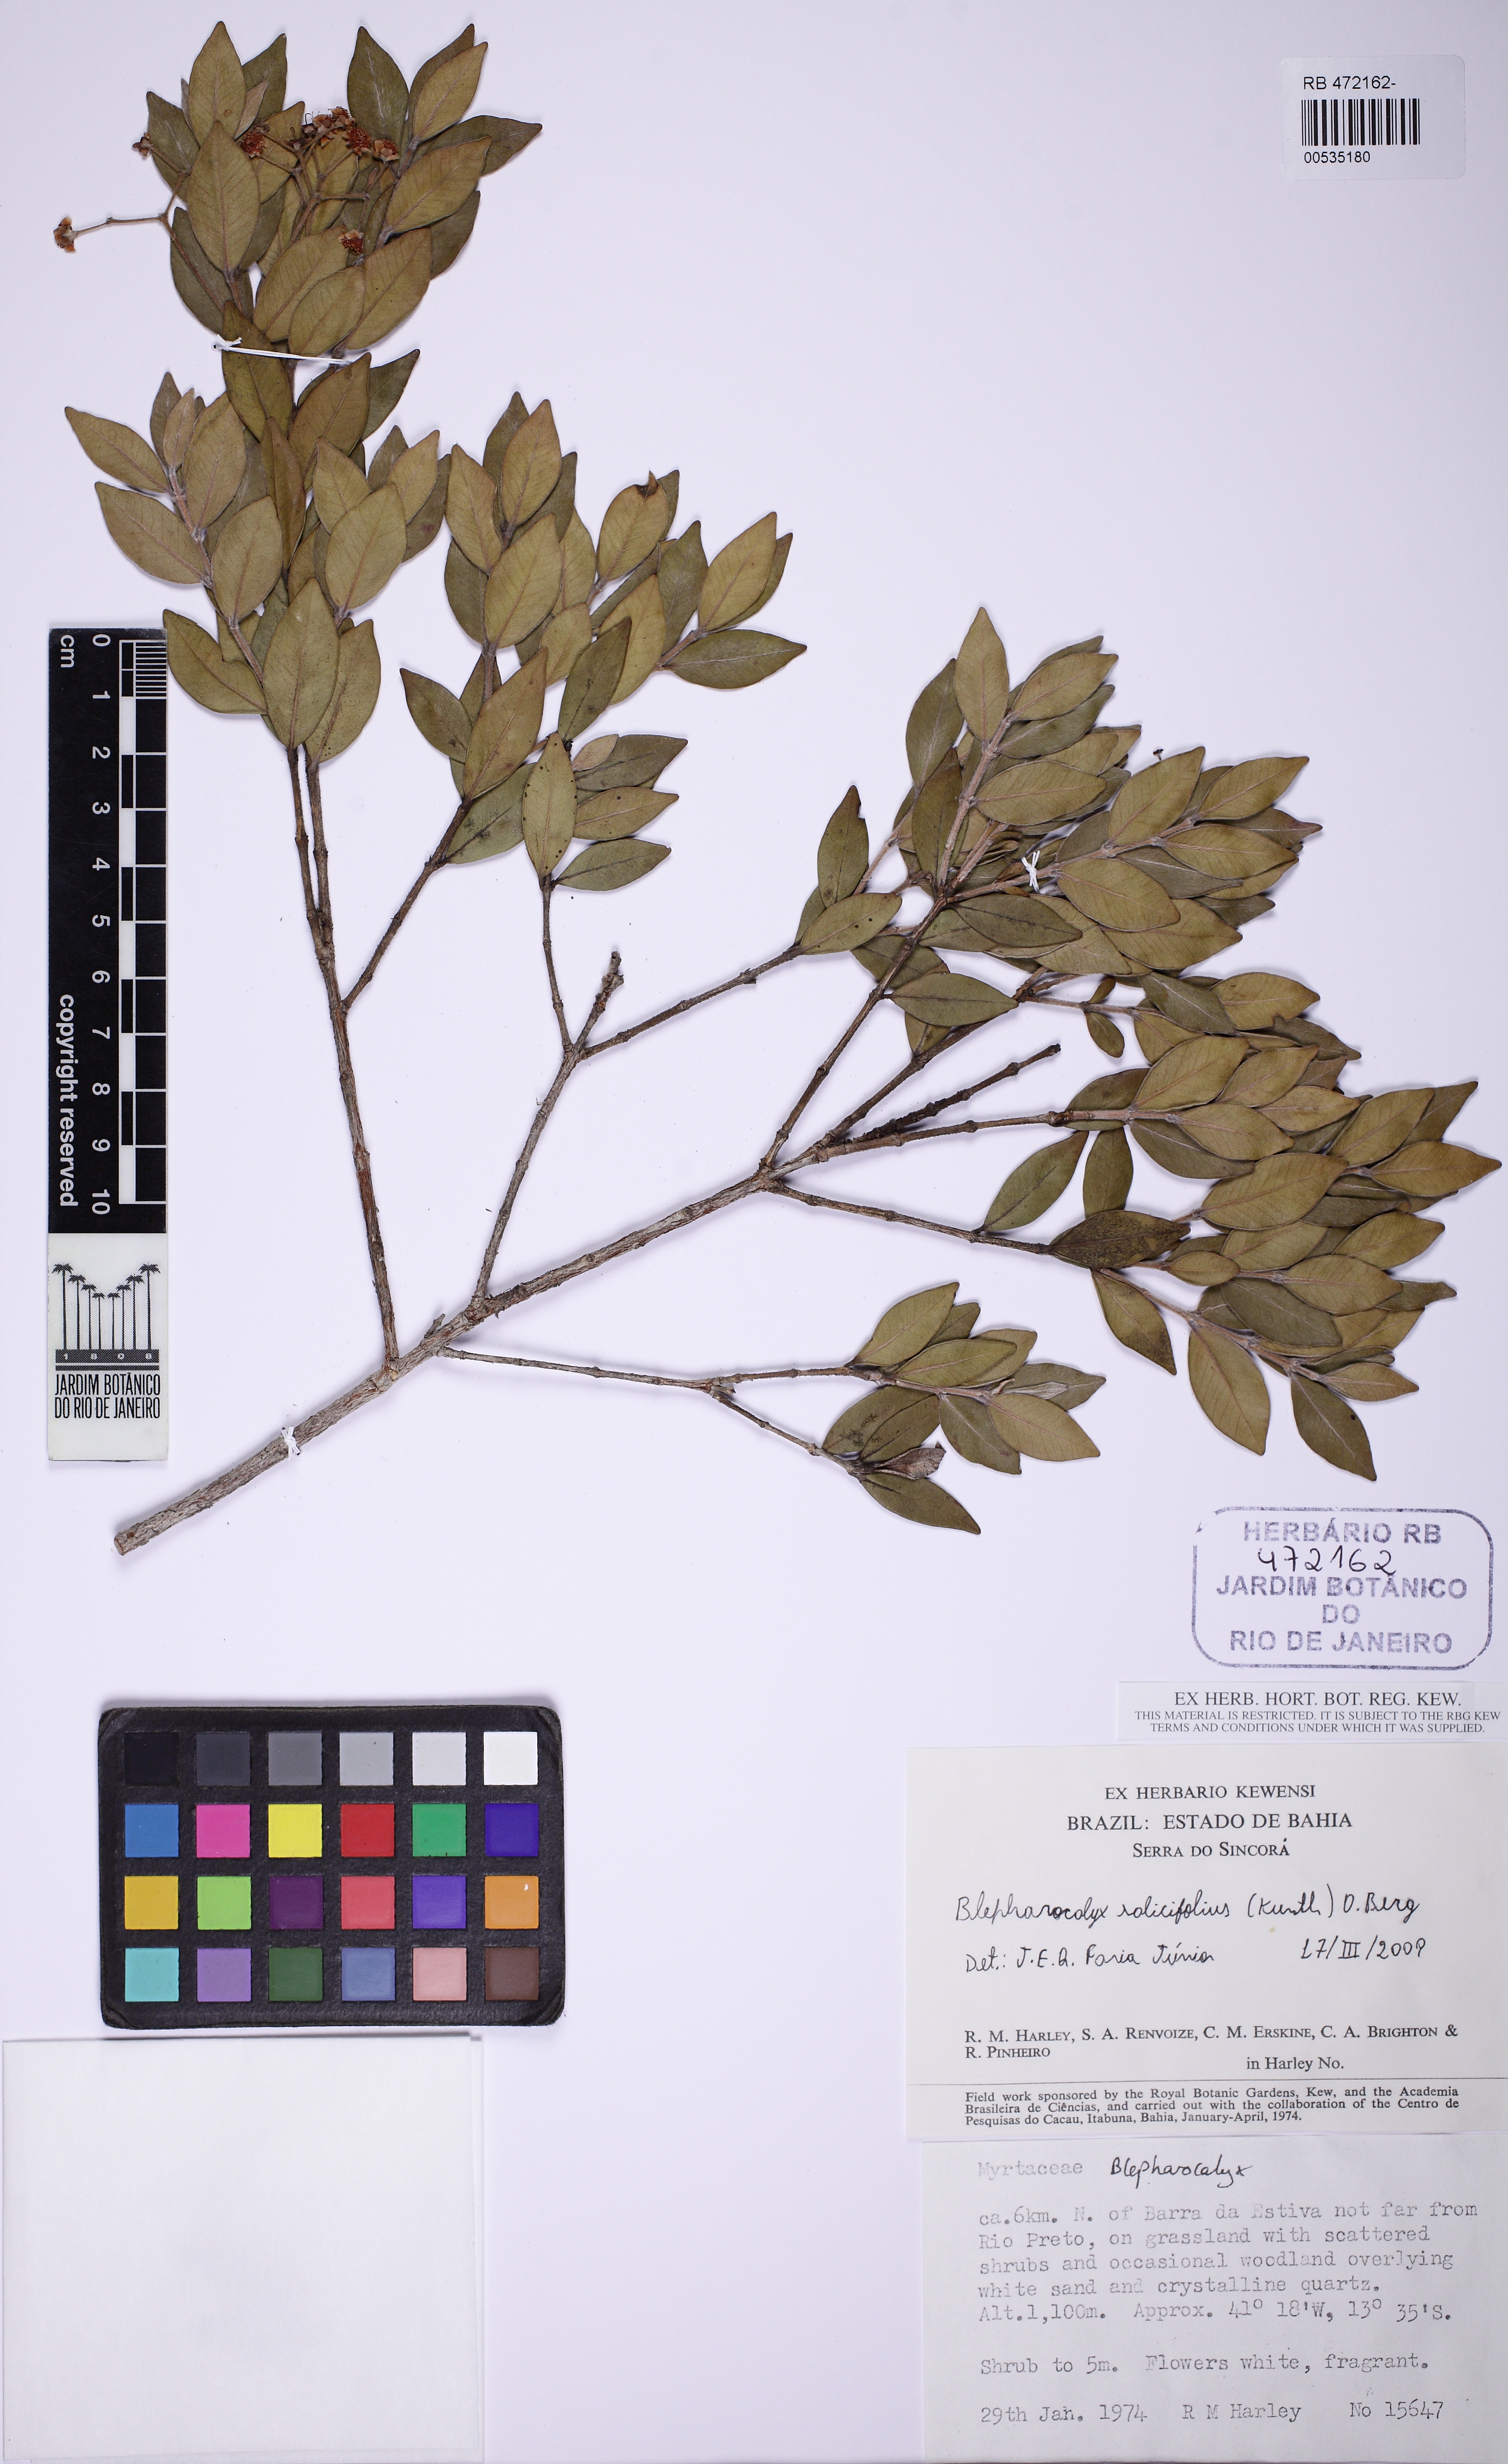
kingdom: Plantae
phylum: Tracheophyta
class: Magnoliopsida
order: Myrtales
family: Myrtaceae
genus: Blepharocalyx
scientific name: Blepharocalyx salicifolius
